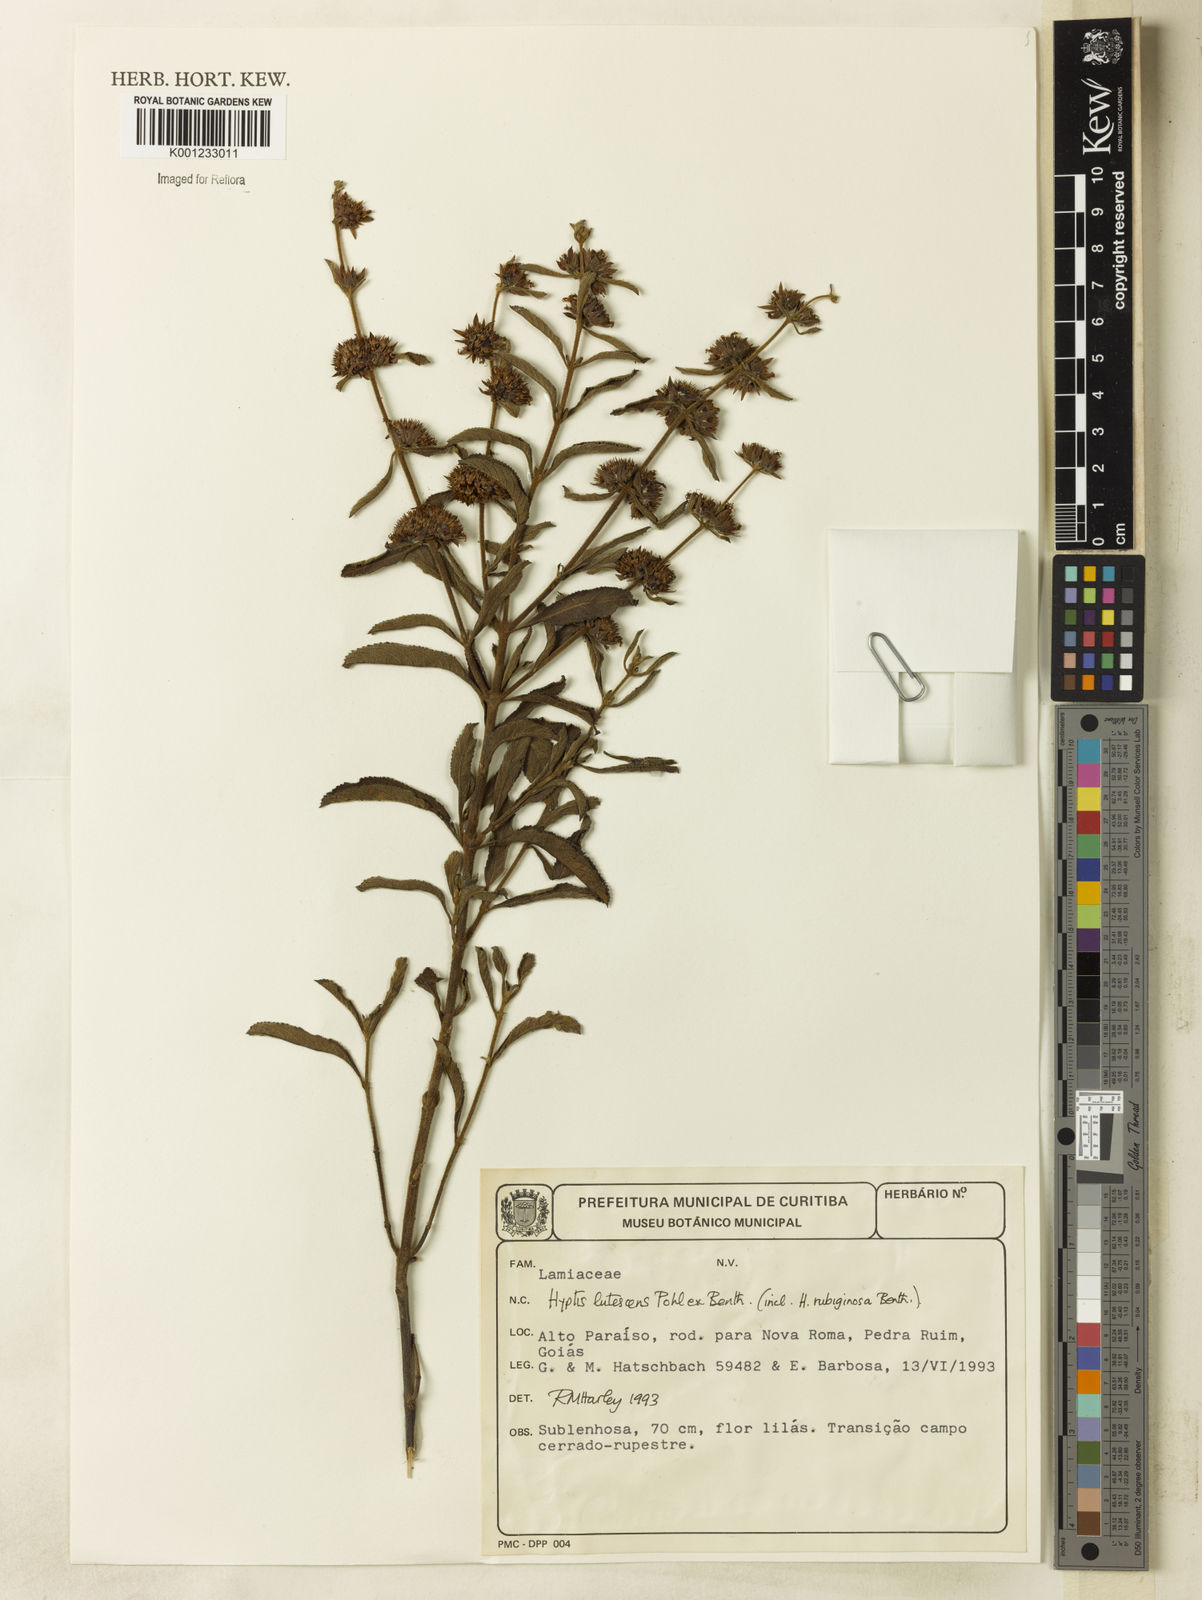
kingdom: Plantae
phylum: Tracheophyta
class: Magnoliopsida
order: Lamiales
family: Lamiaceae
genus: Hyptis
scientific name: Hyptis lutescens
